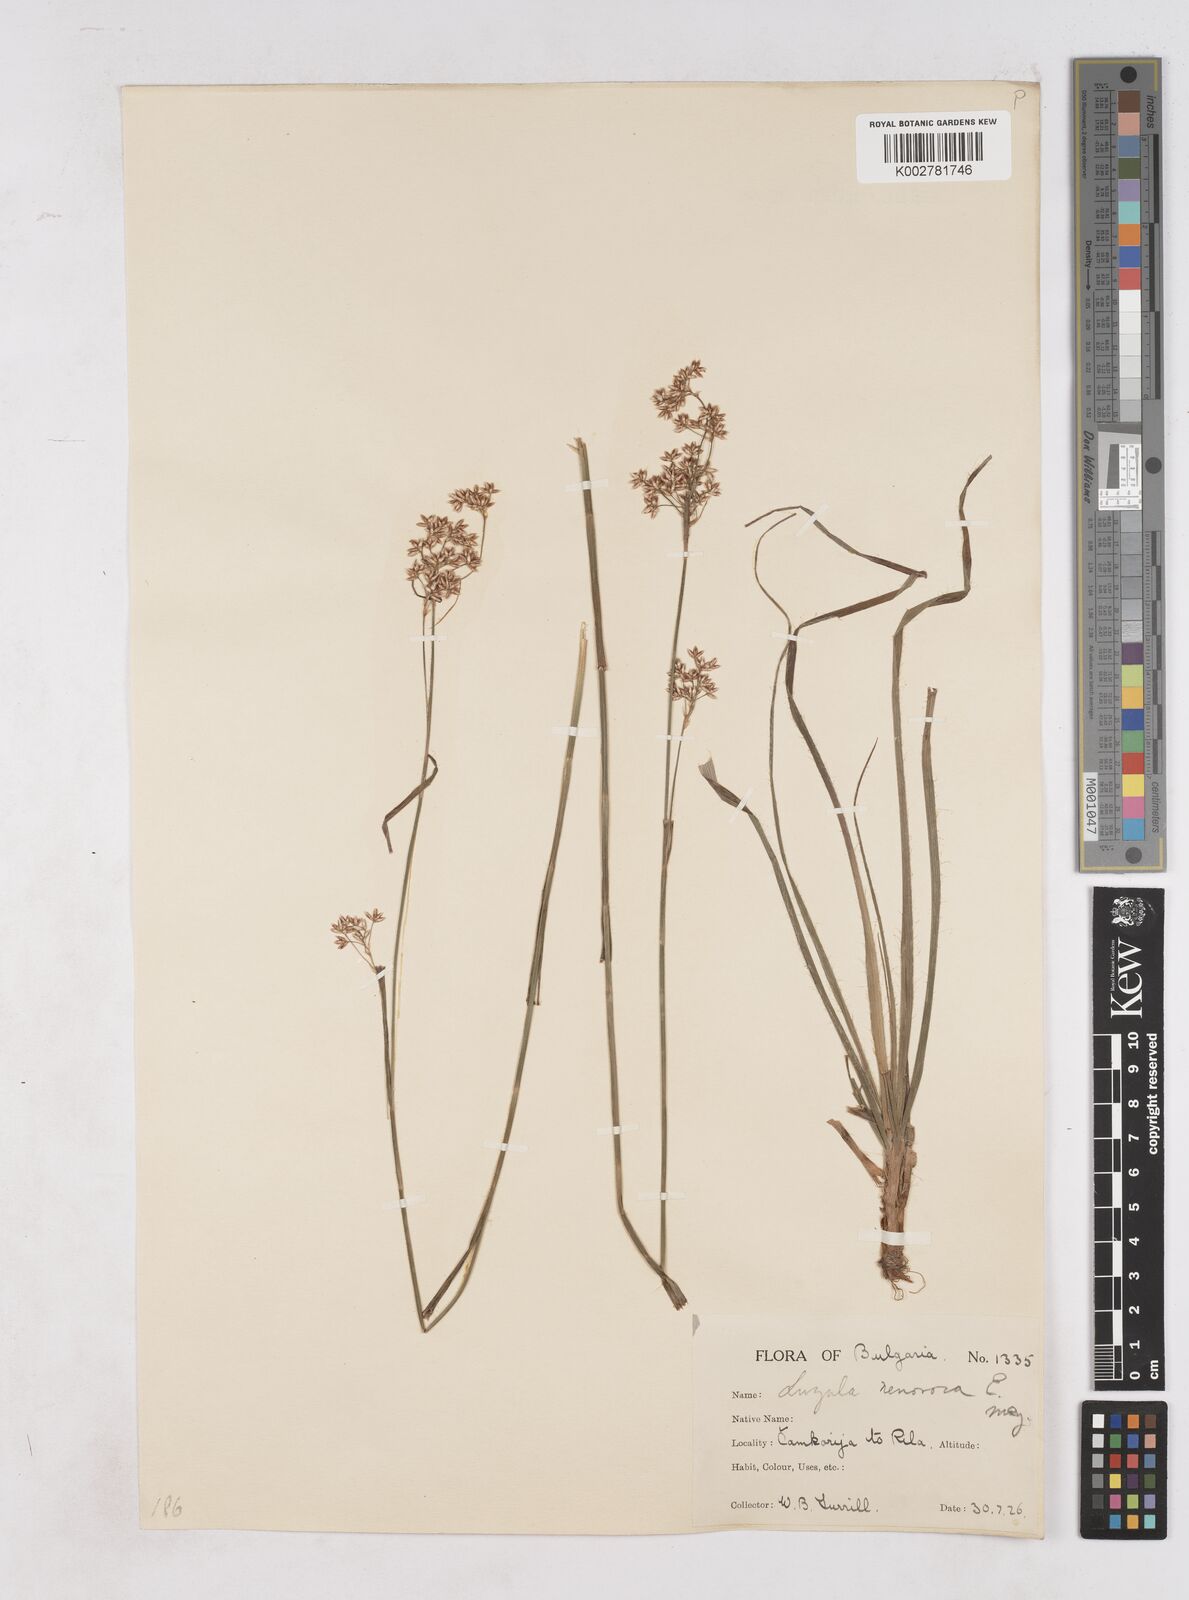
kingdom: Plantae
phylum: Tracheophyta
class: Liliopsida
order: Poales
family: Juncaceae
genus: Luzula
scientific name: Luzula luzuloides
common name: White wood-rush
